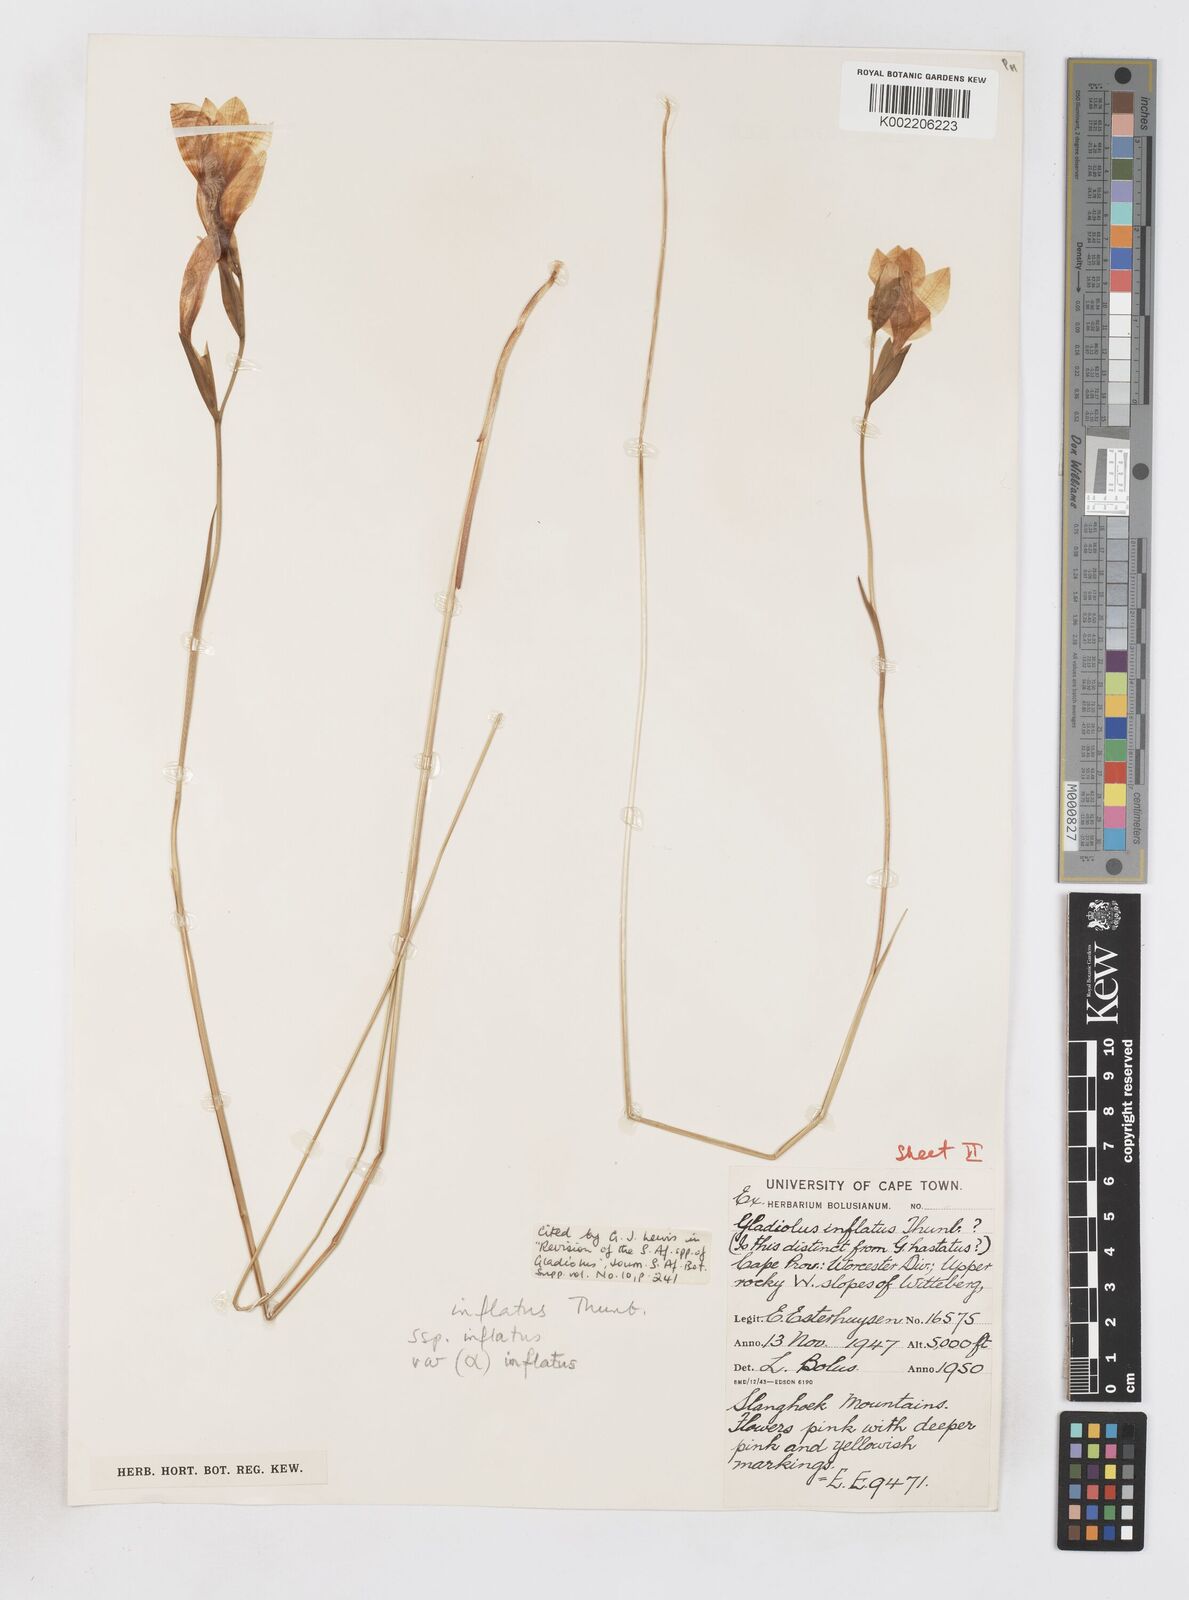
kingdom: Plantae
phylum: Tracheophyta
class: Liliopsida
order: Asparagales
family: Iridaceae
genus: Gladiolus
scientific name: Gladiolus inflatus
